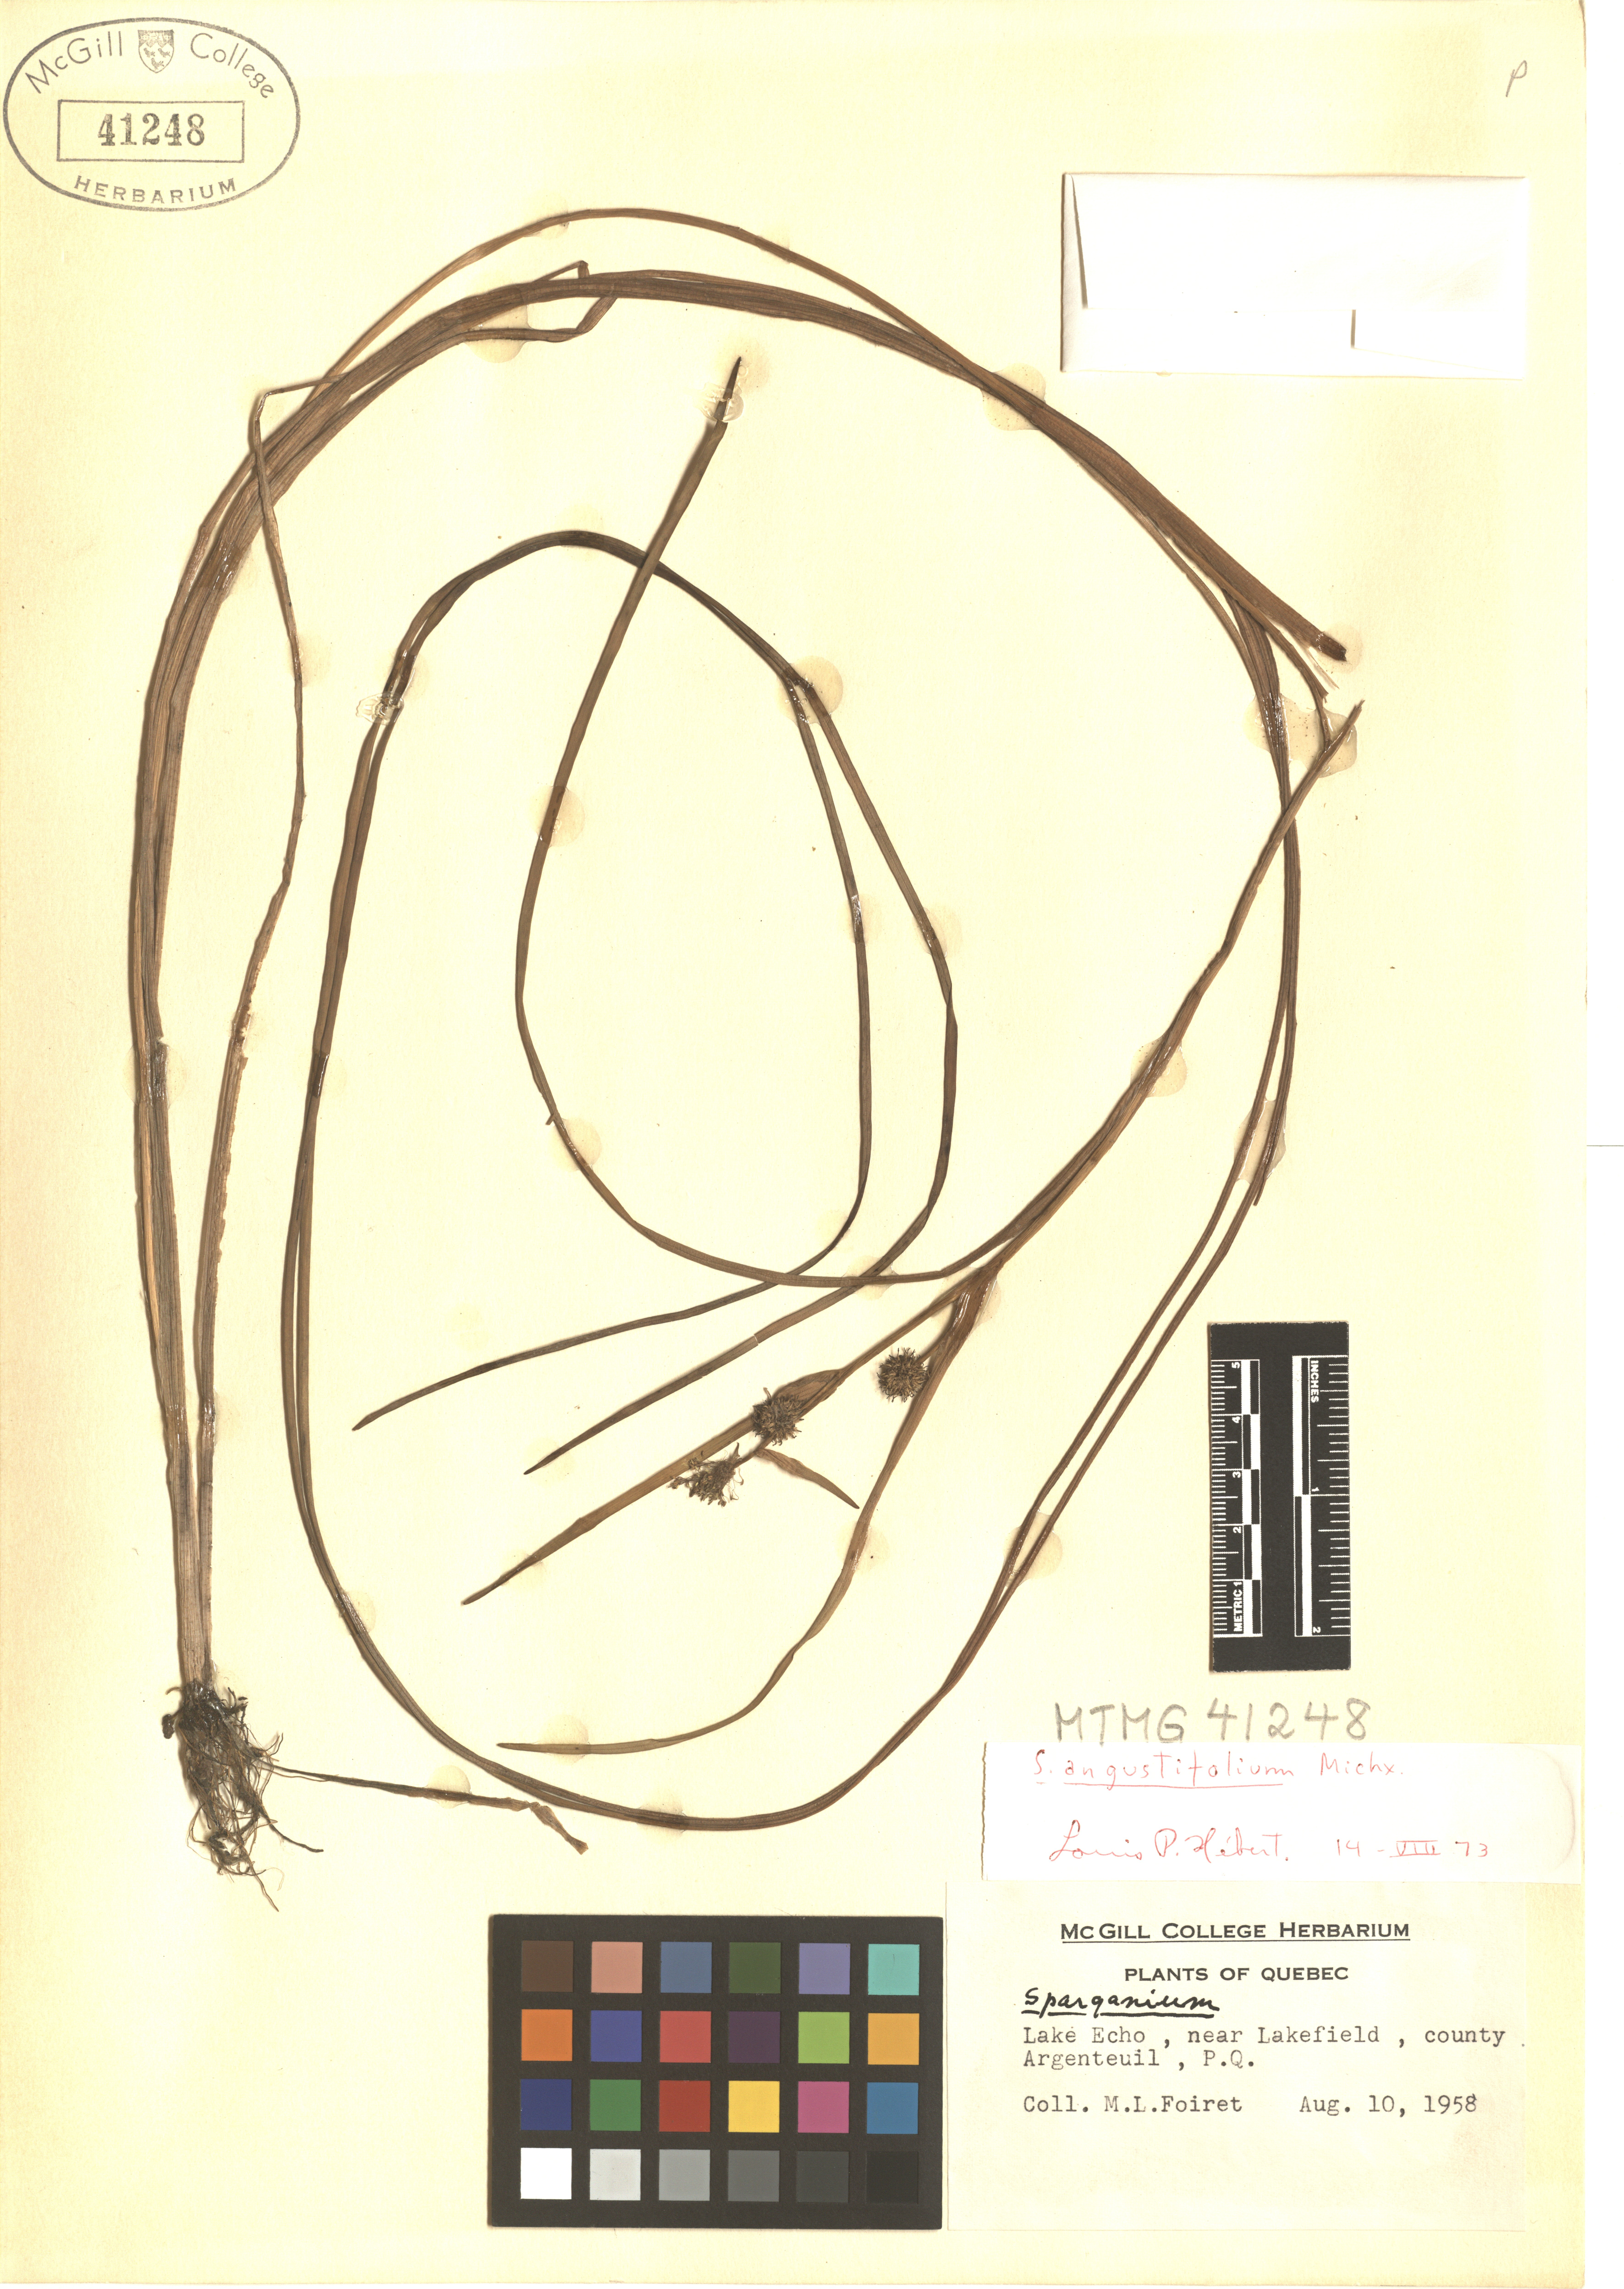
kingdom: Plantae
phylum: Tracheophyta
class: Liliopsida
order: Poales
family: Typhaceae
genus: Sparganium
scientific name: Sparganium angustifolium
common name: Floating bur-reed
